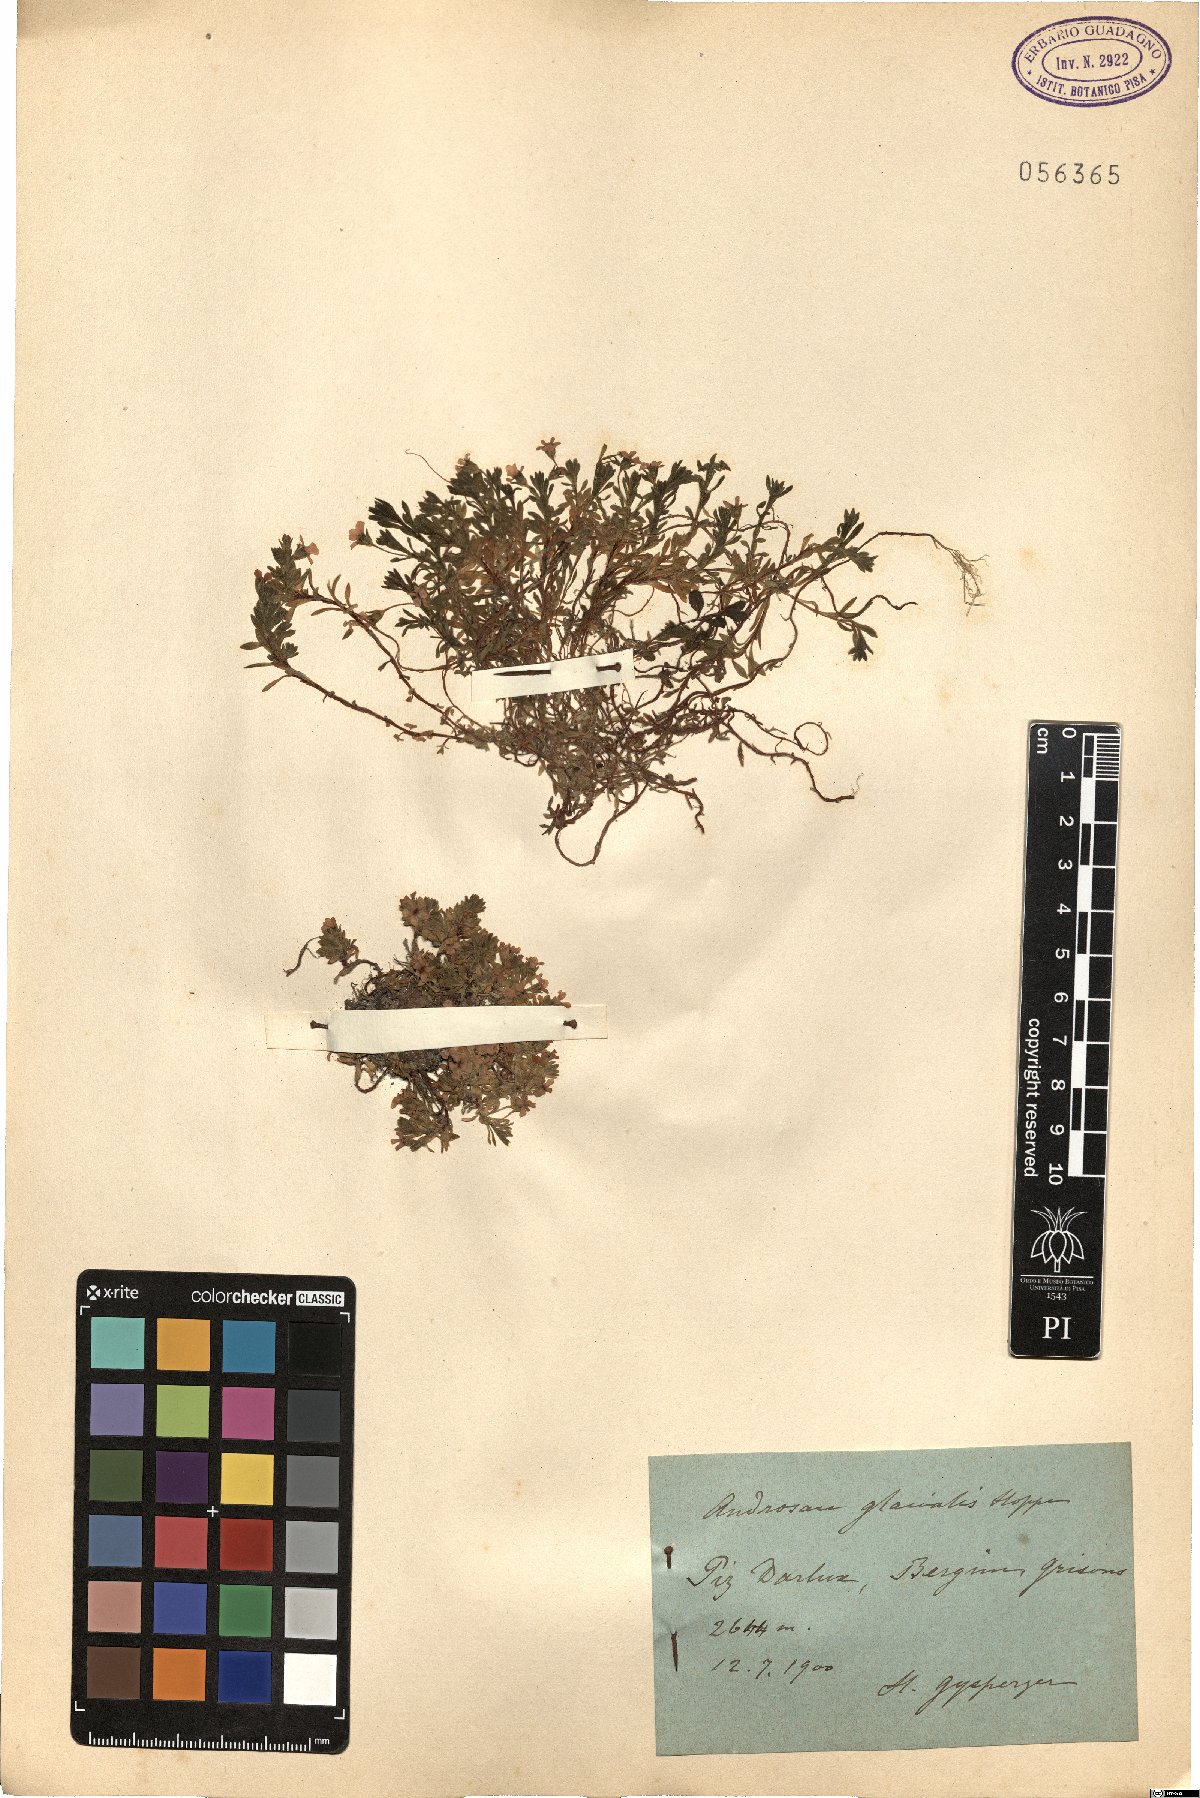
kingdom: Plantae
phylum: Tracheophyta
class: Magnoliopsida
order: Ericales
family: Primulaceae
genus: Androsace
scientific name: Androsace alpina
